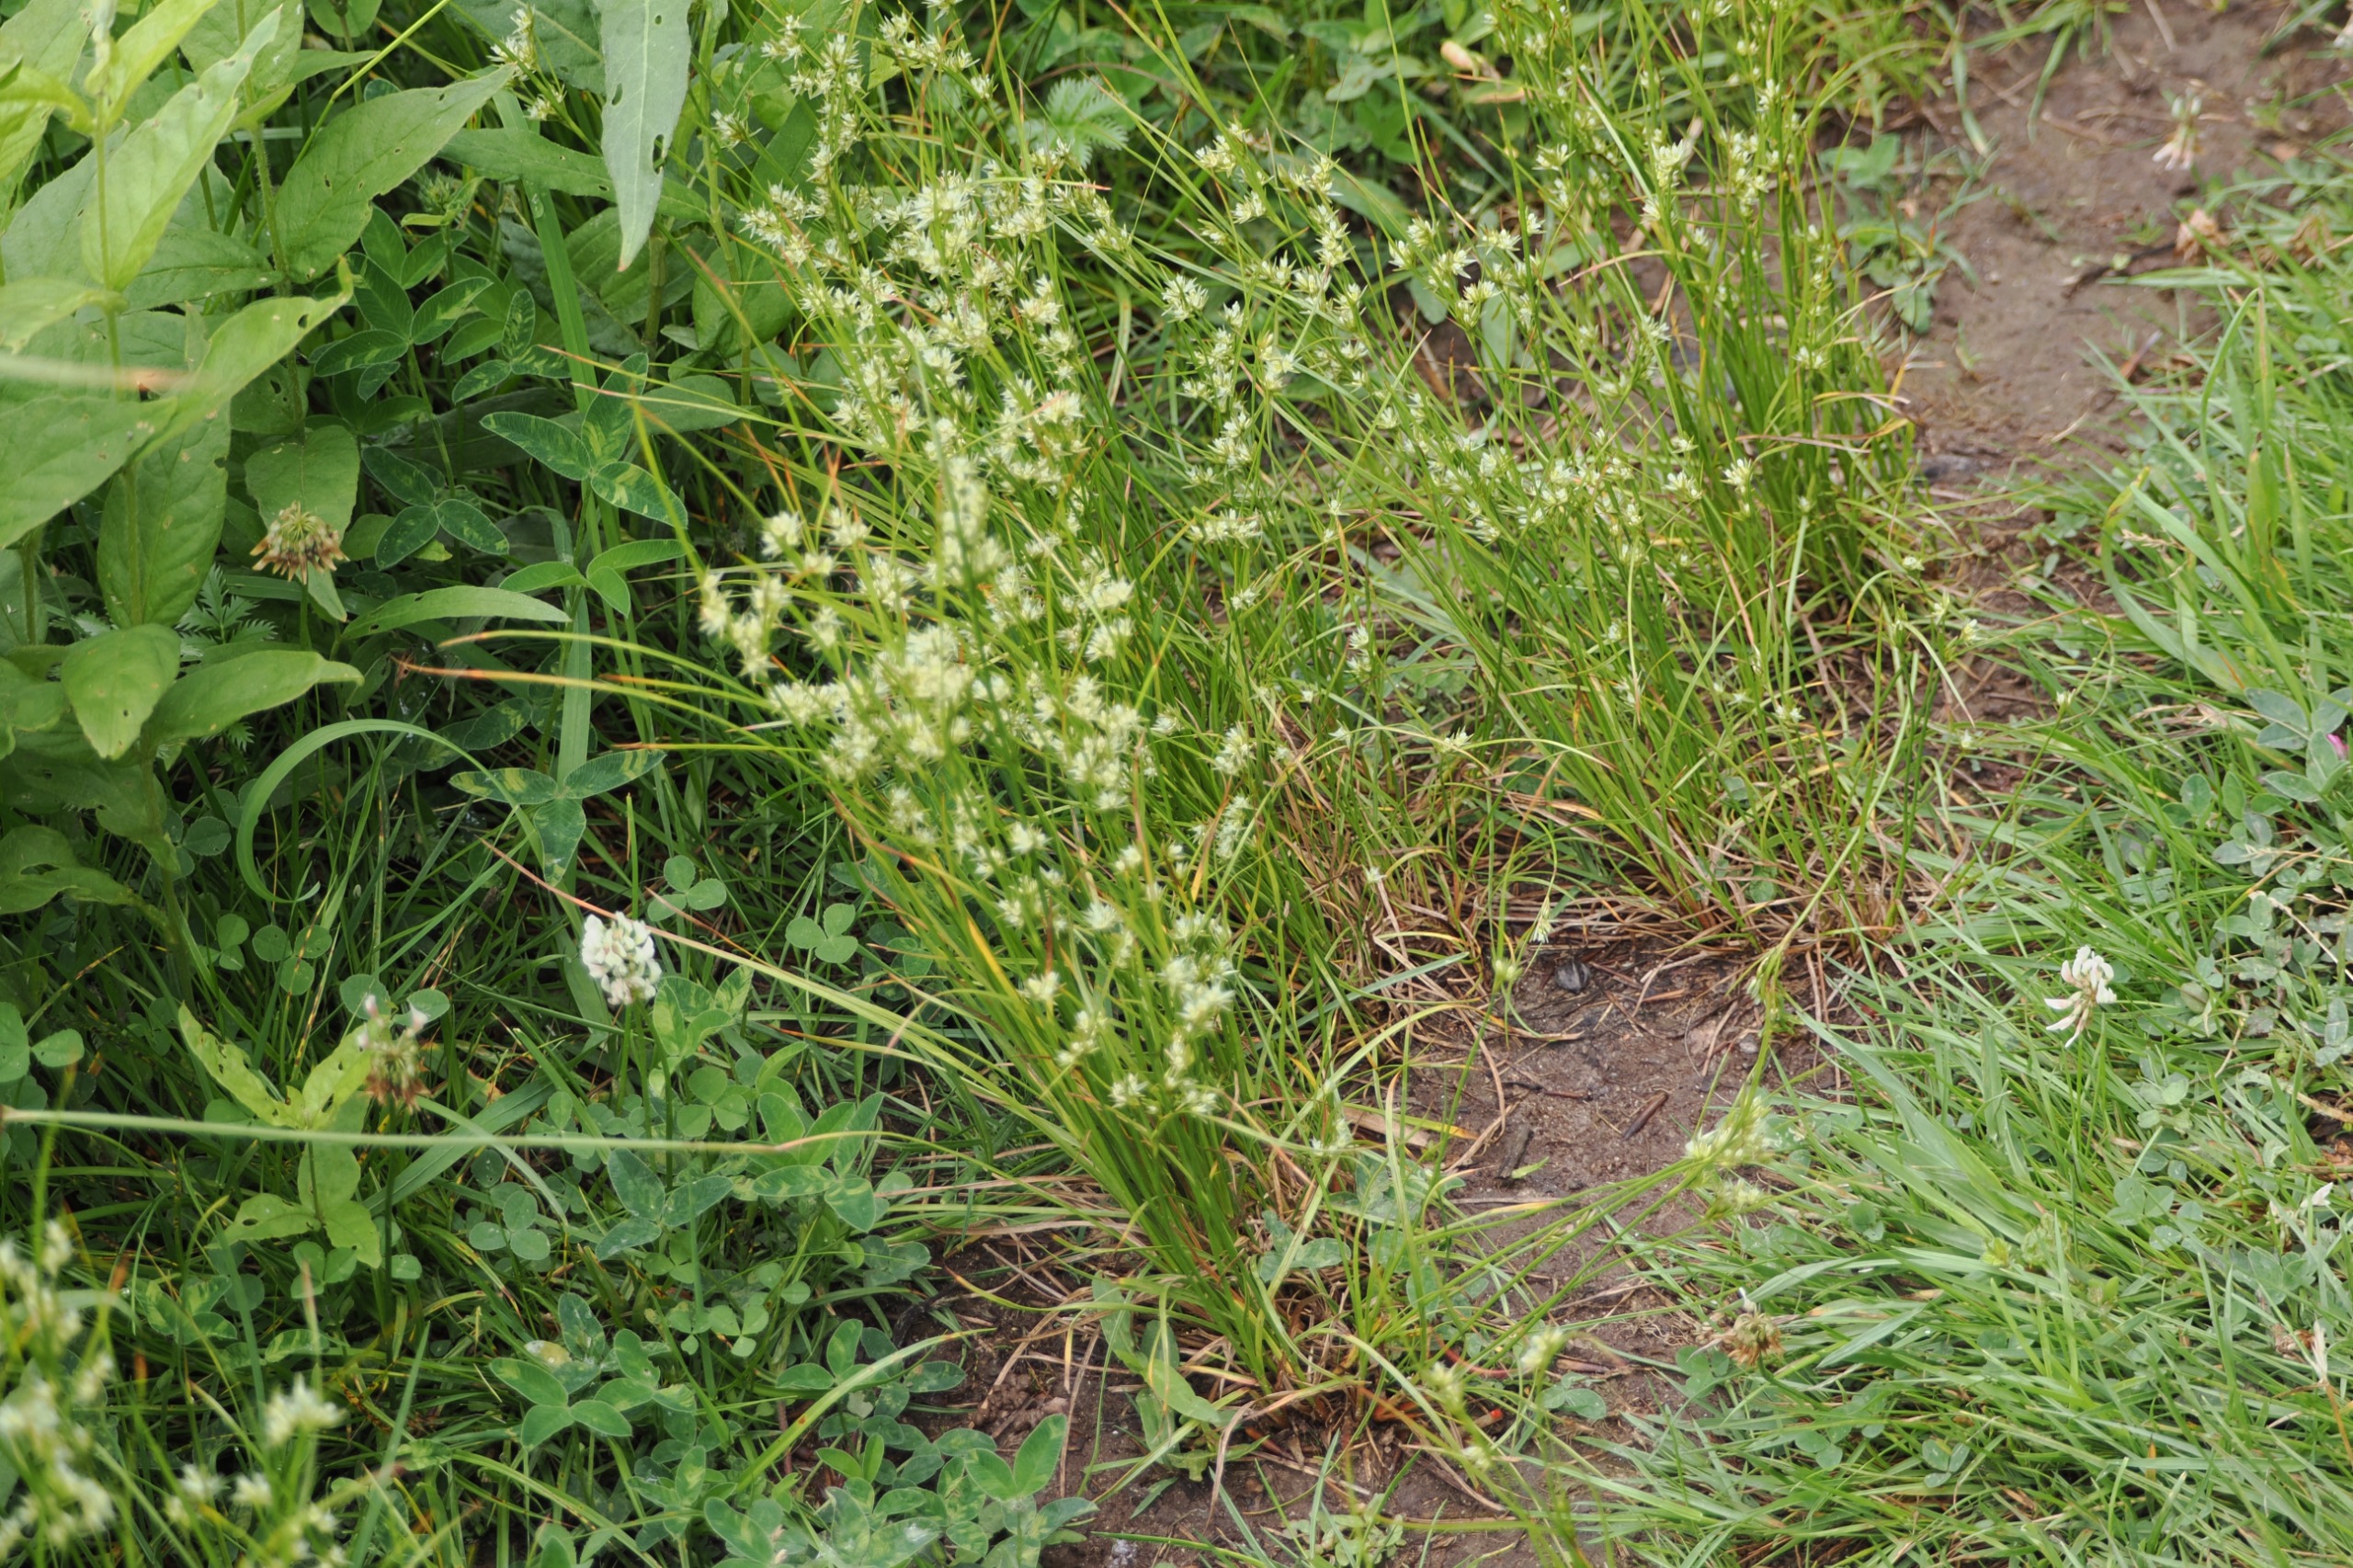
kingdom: Plantae
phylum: Tracheophyta
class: Liliopsida
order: Poales
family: Juncaceae
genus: Juncus
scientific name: Juncus tenuis
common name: Tue-siv
